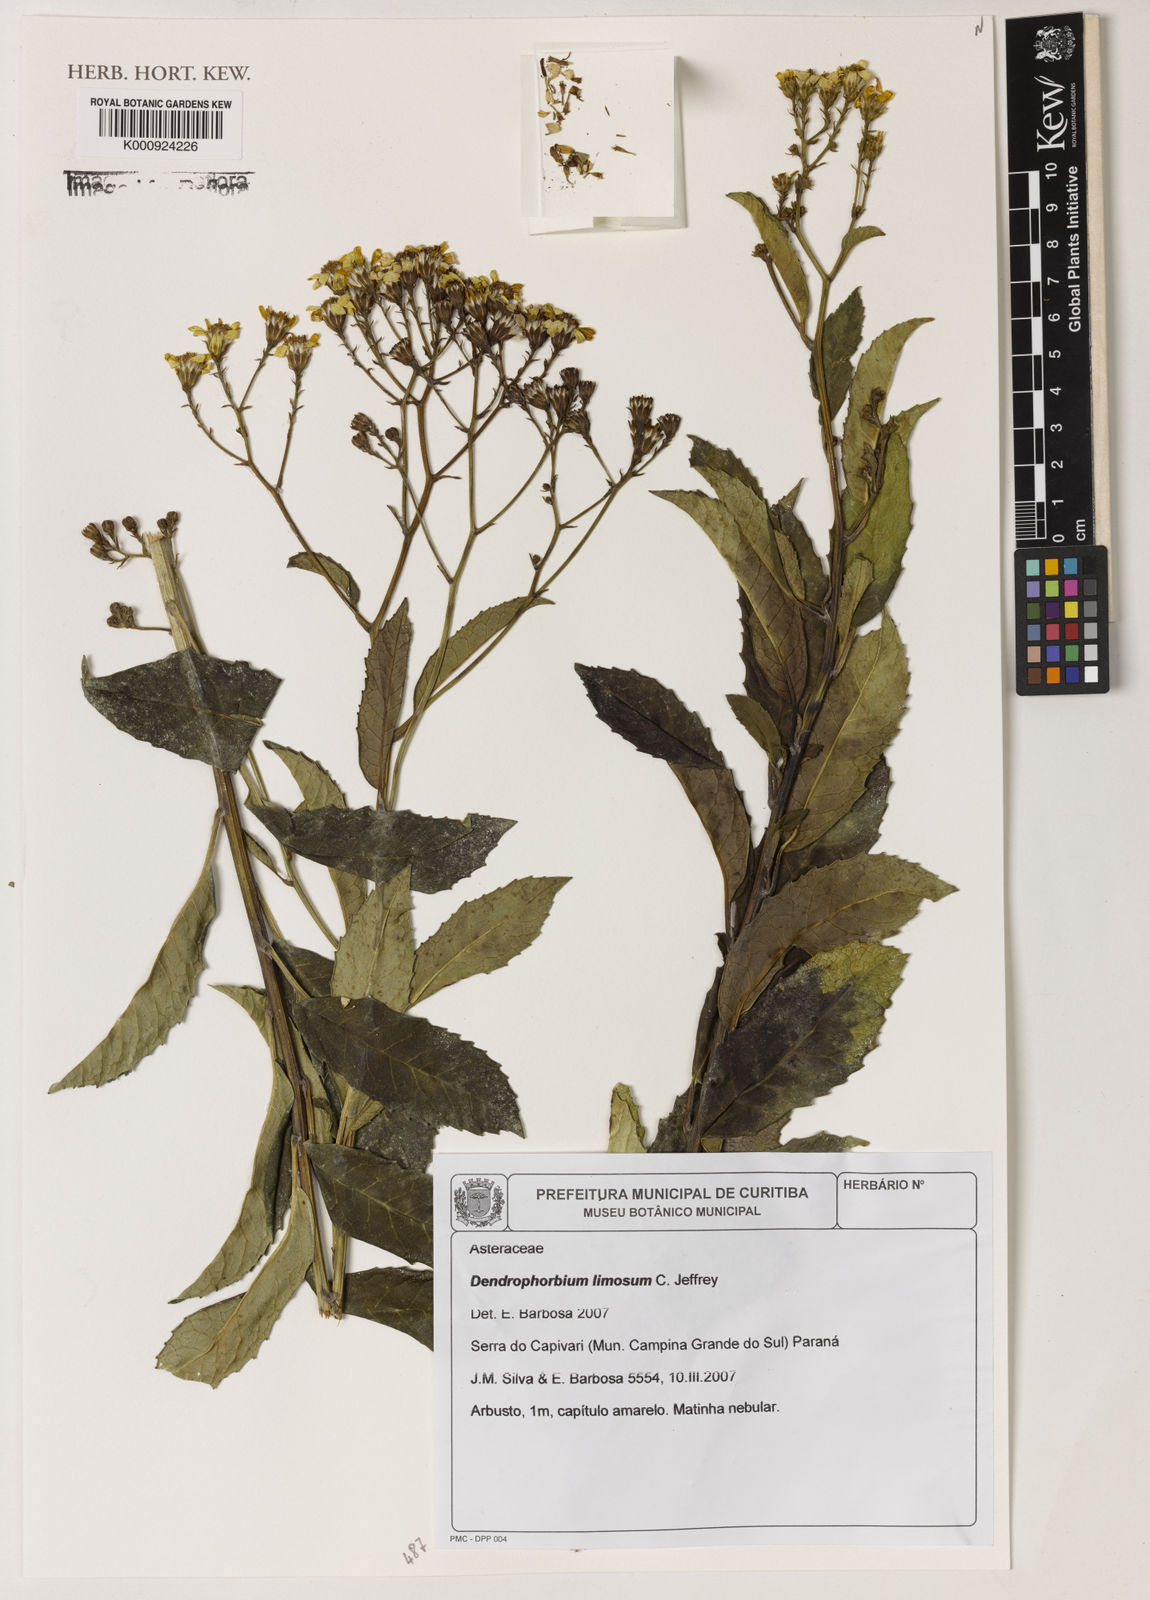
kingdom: Plantae
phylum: Tracheophyta
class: Magnoliopsida
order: Asterales
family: Asteraceae
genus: Dendrophorbium
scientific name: Dendrophorbium limosum
